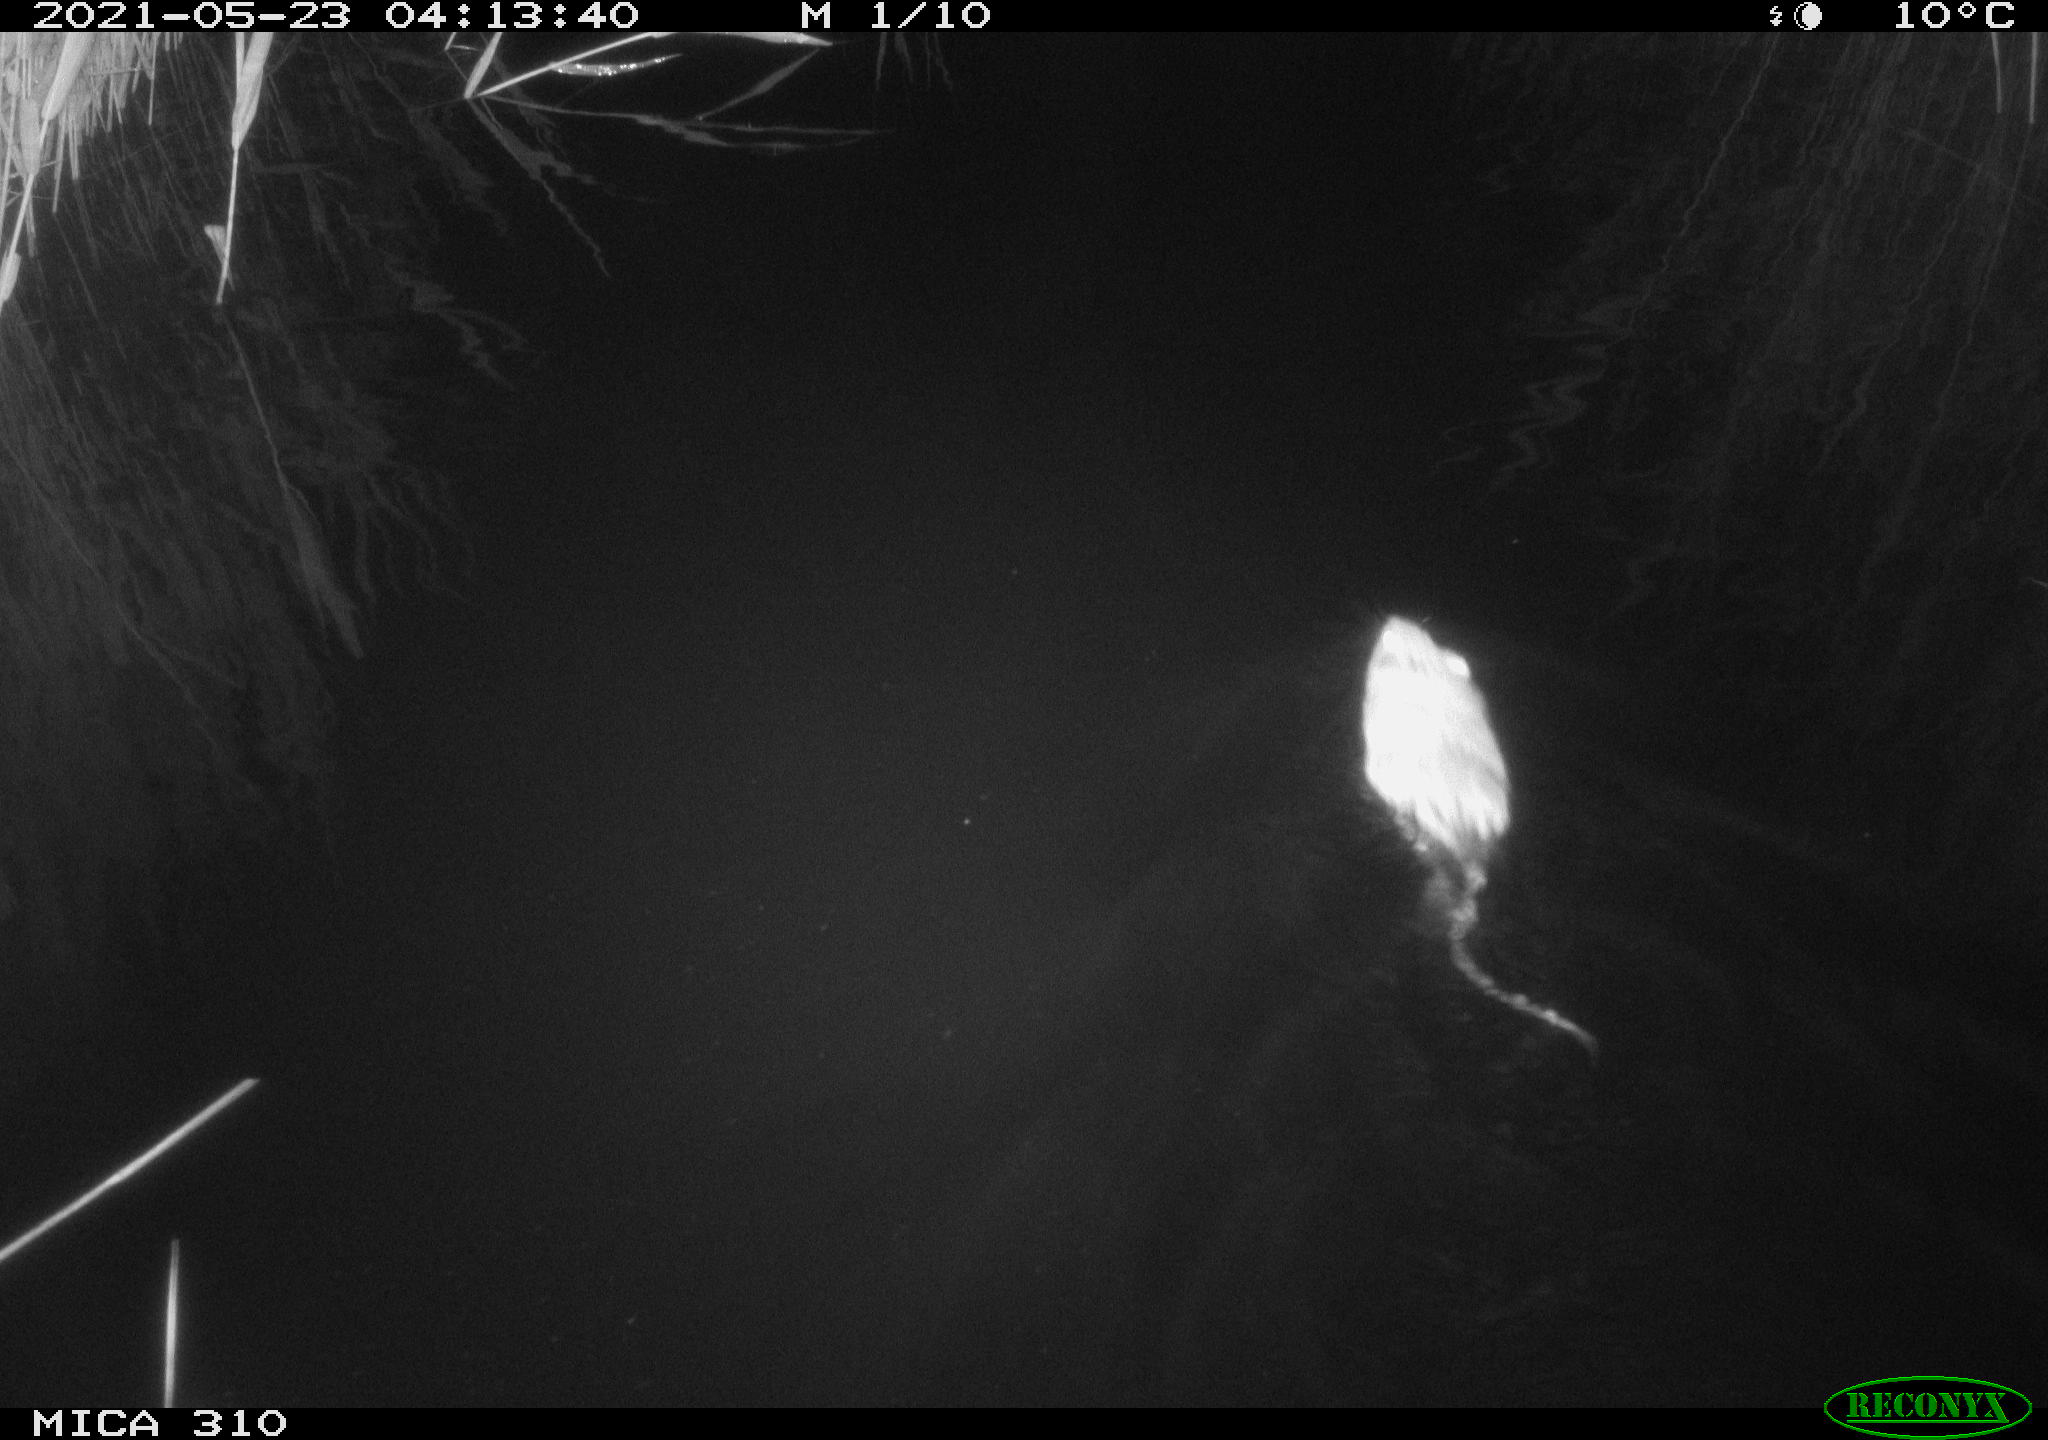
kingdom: Animalia
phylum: Chordata
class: Mammalia
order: Rodentia
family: Cricetidae
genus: Ondatra
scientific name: Ondatra zibethicus
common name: Muskrat
